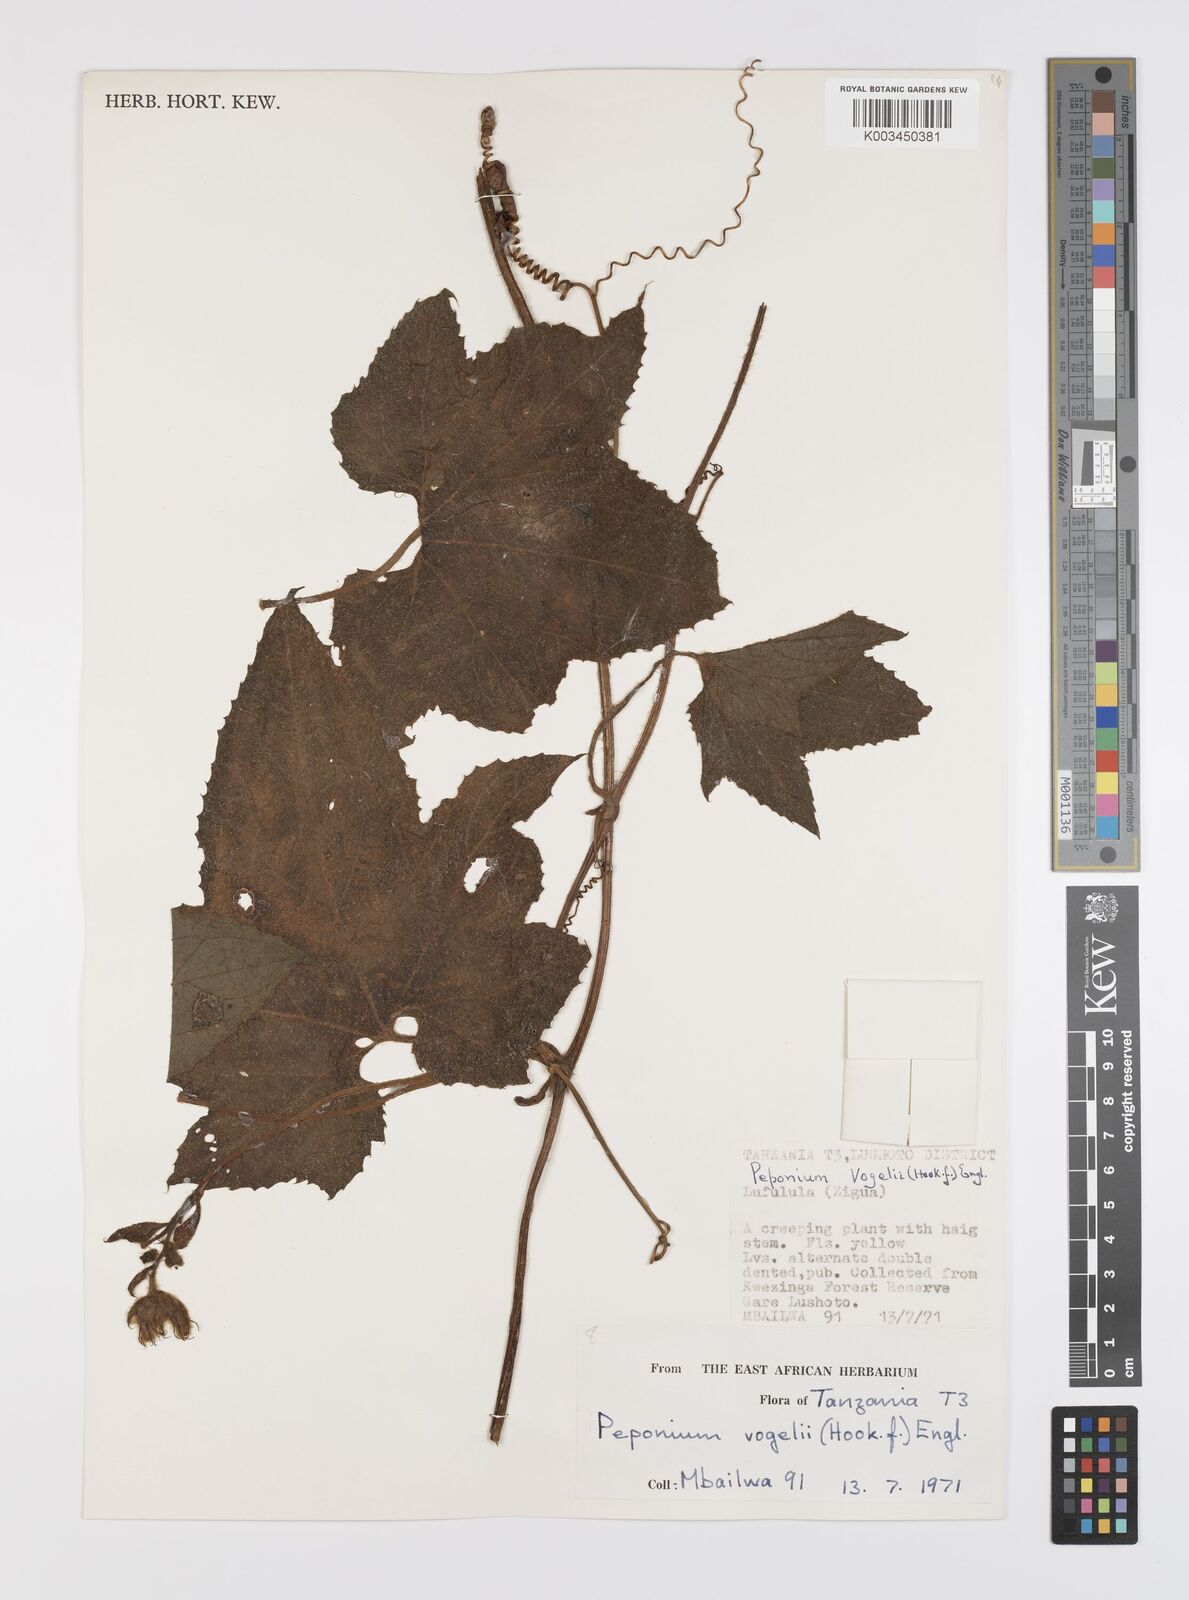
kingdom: Plantae
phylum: Tracheophyta
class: Magnoliopsida
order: Cucurbitales
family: Cucurbitaceae
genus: Peponium
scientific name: Peponium vogelii
